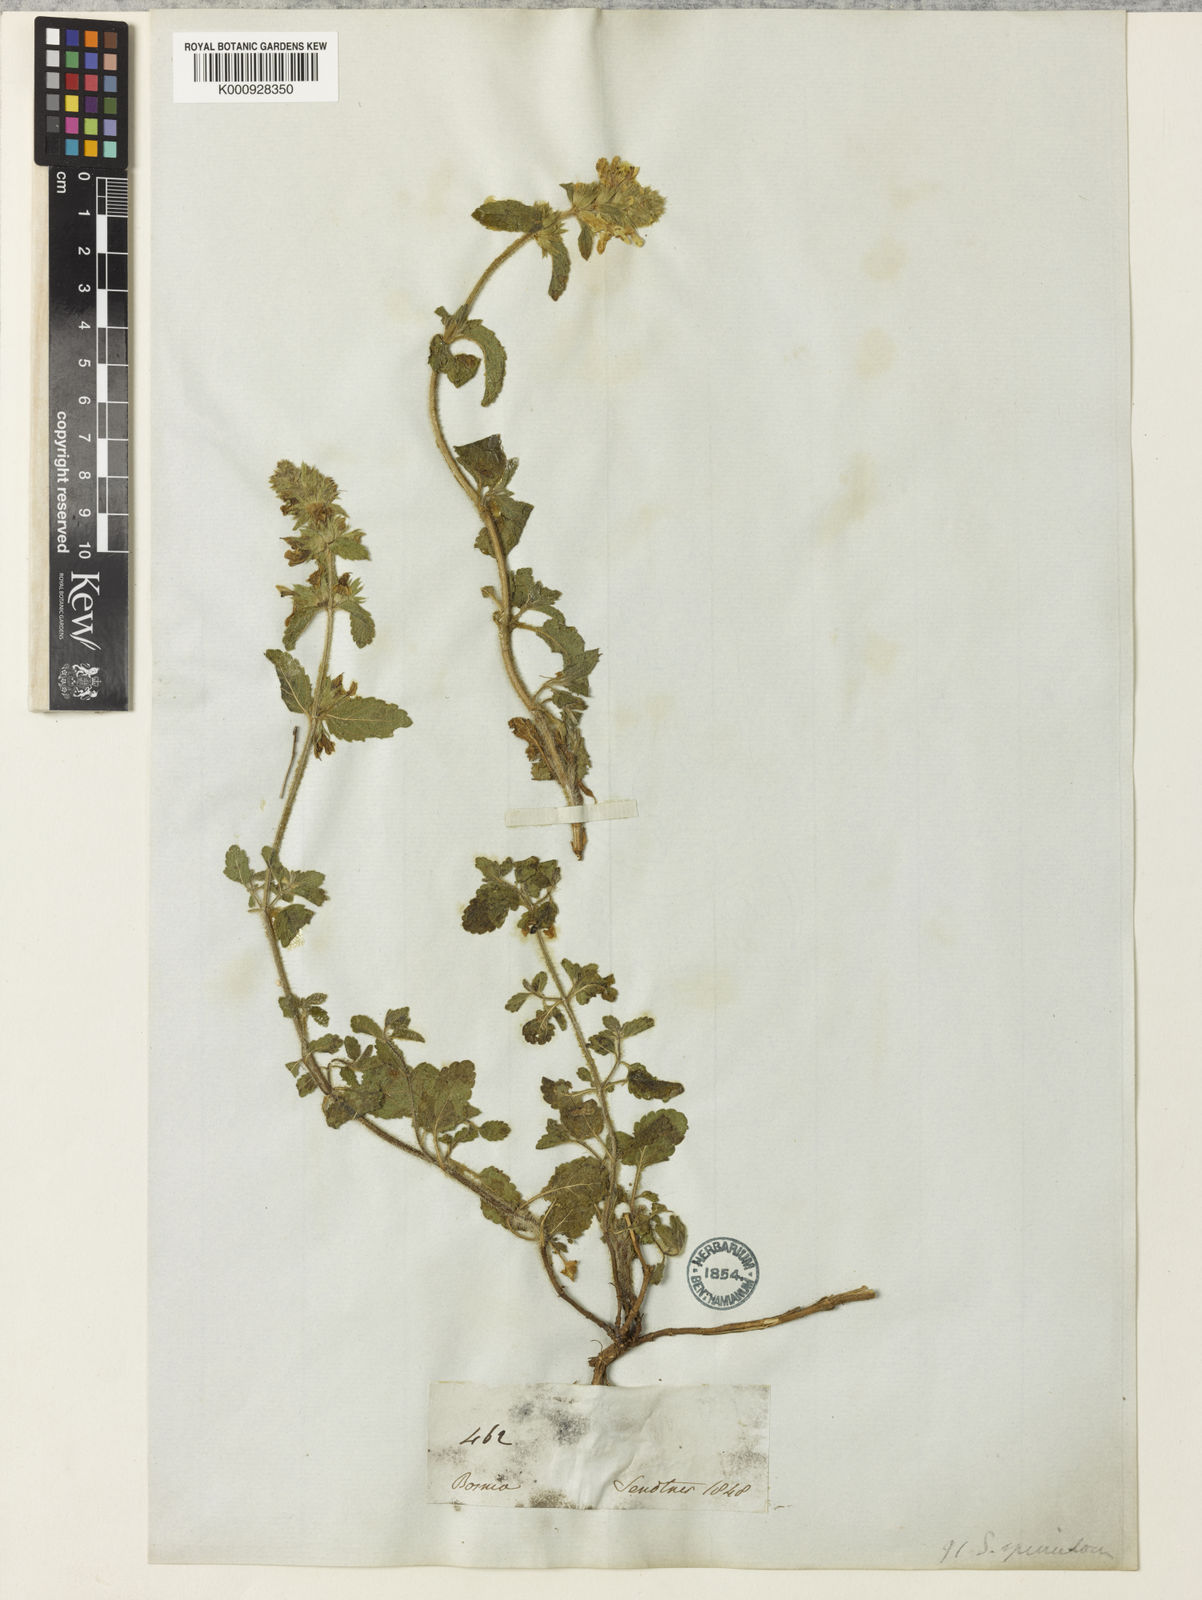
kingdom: Plantae
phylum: Tracheophyta
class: Magnoliopsida
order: Lamiales
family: Lamiaceae
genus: Stachys
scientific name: Stachys anisochila
